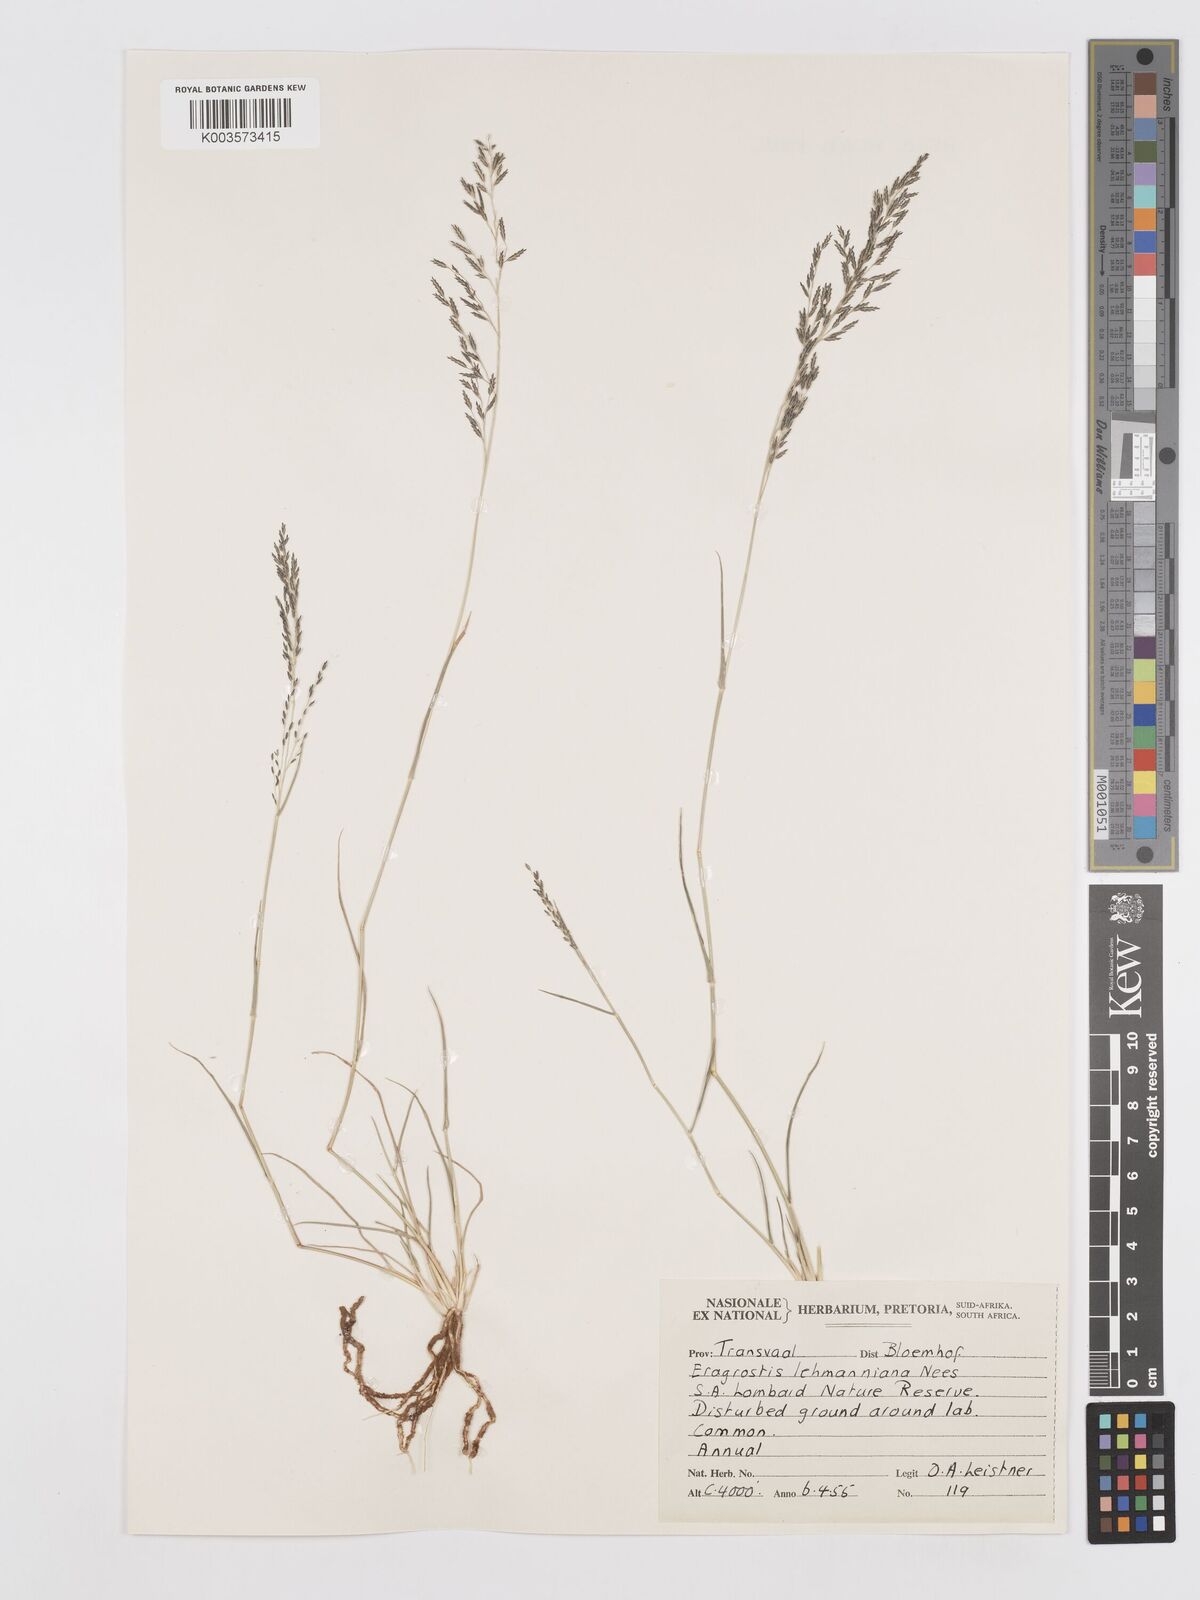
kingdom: Plantae
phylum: Tracheophyta
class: Liliopsida
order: Poales
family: Poaceae
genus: Eragrostis
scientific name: Eragrostis lehmanniana
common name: Lehmann lovegrass
